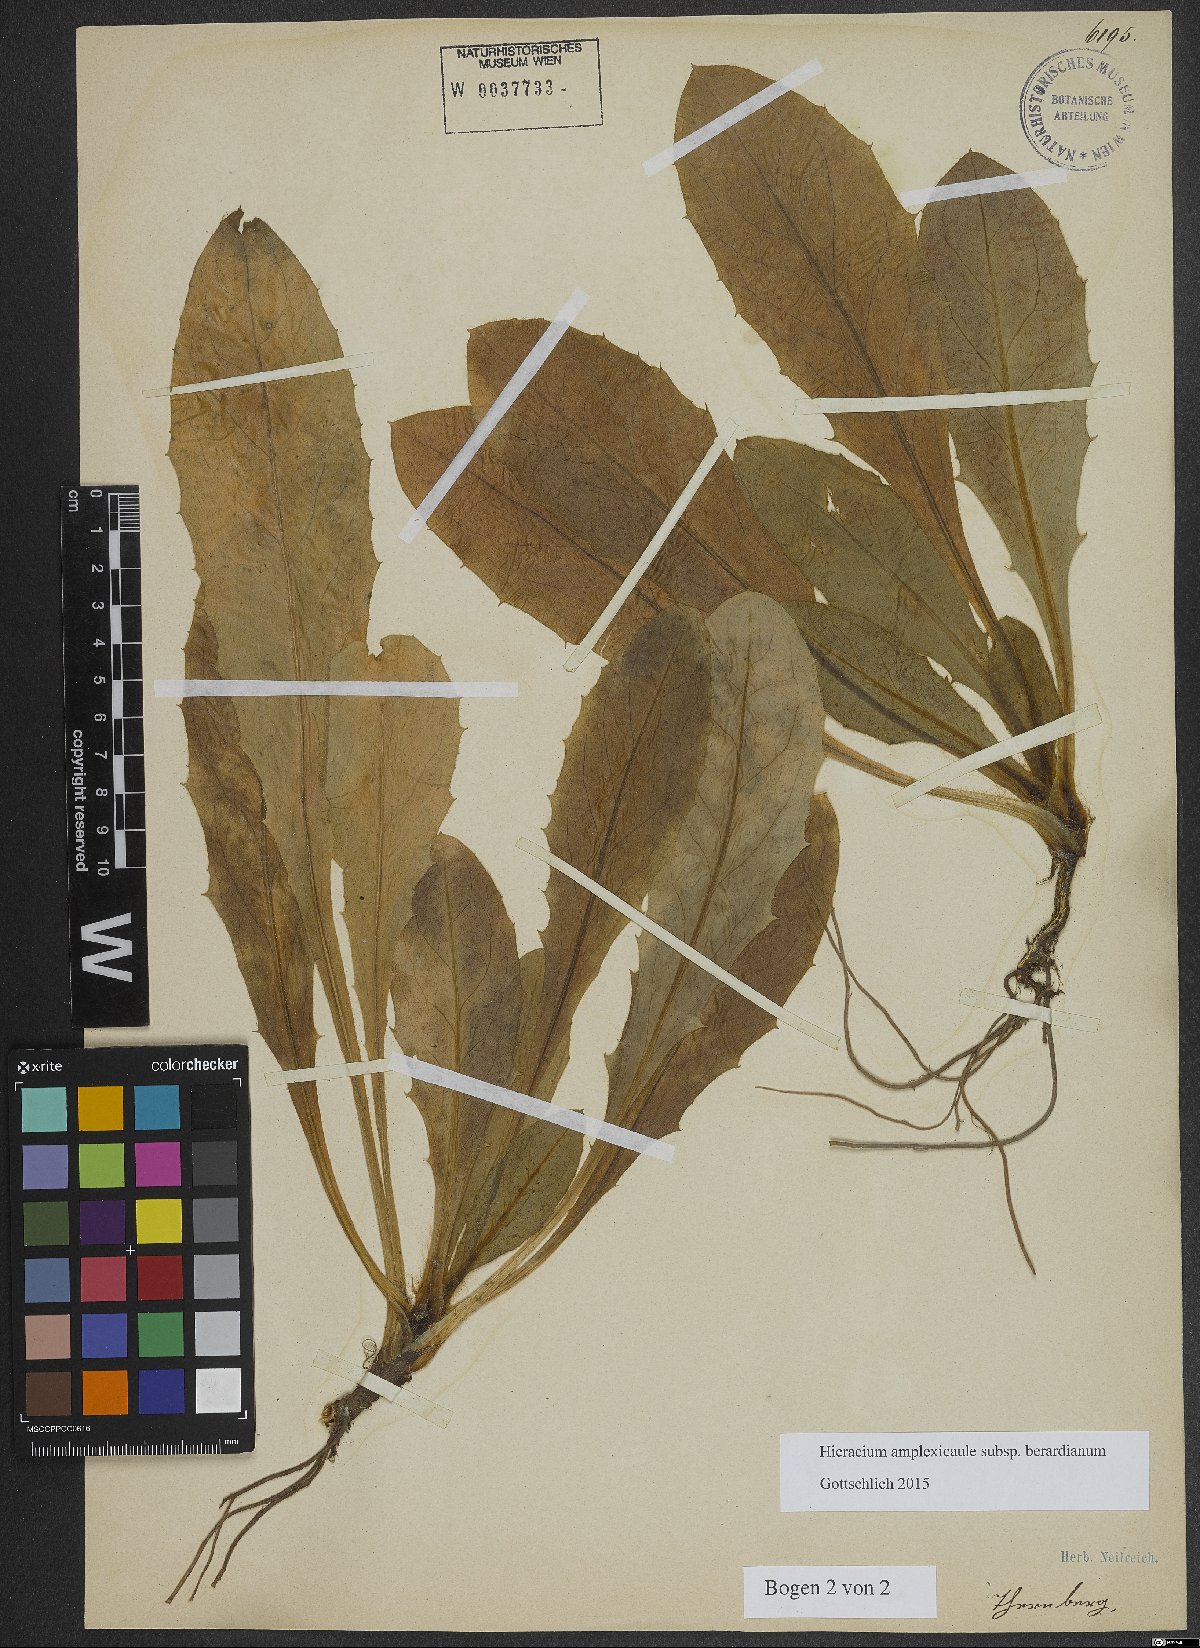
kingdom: Plantae
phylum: Tracheophyta
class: Magnoliopsida
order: Asterales
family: Asteraceae
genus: Hieracium
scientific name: Hieracium amplexicaule
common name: Sticky hawkweed
